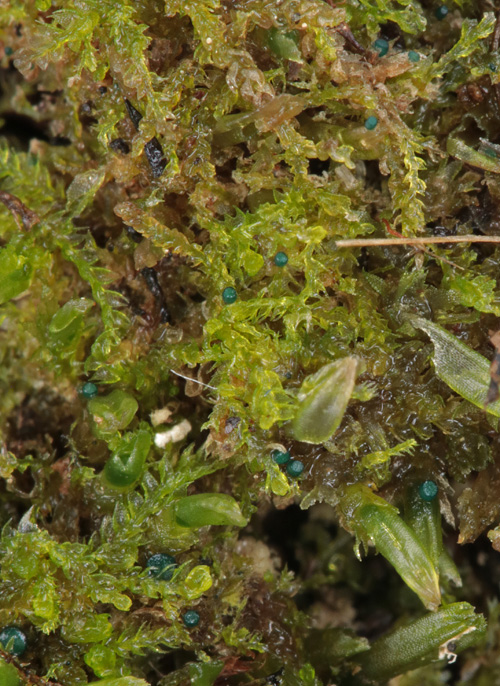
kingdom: Fungi
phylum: Ascomycota
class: Leotiomycetes
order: Leotiales
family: Mniaeciaceae
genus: Mniaecia
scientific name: Mniaecia jungermanniae
